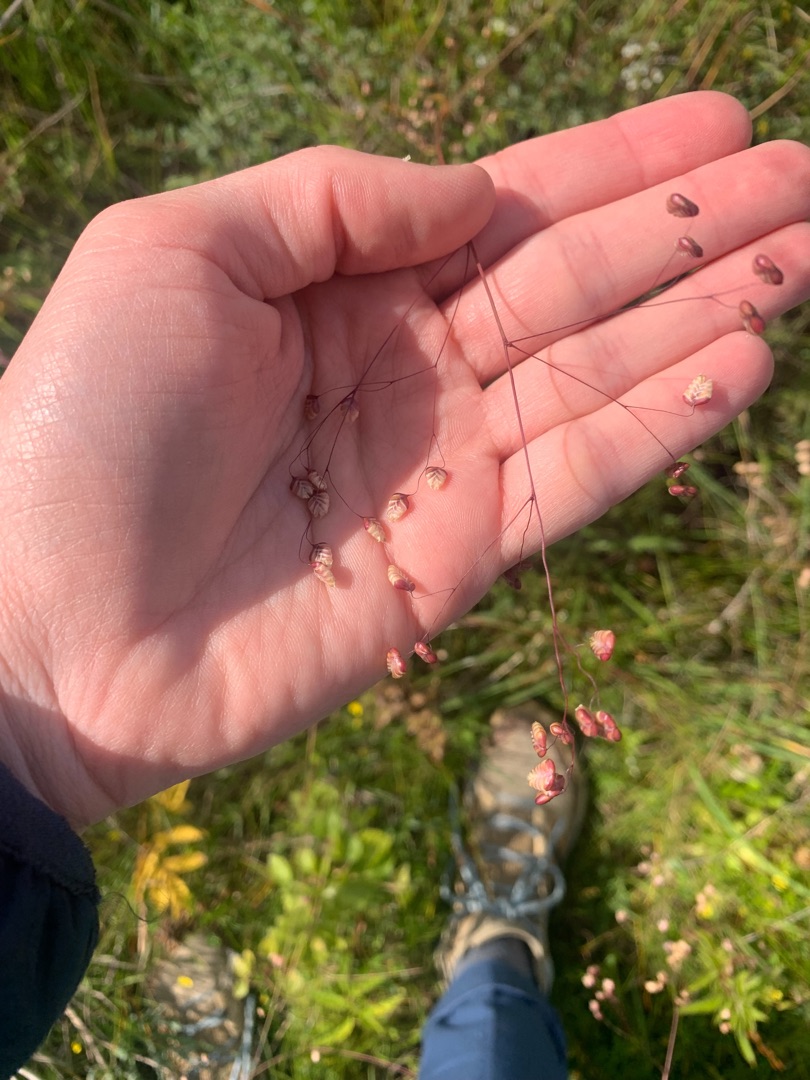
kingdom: Plantae
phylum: Tracheophyta
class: Liliopsida
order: Poales
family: Poaceae
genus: Briza
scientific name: Briza media
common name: Hjertegræs
